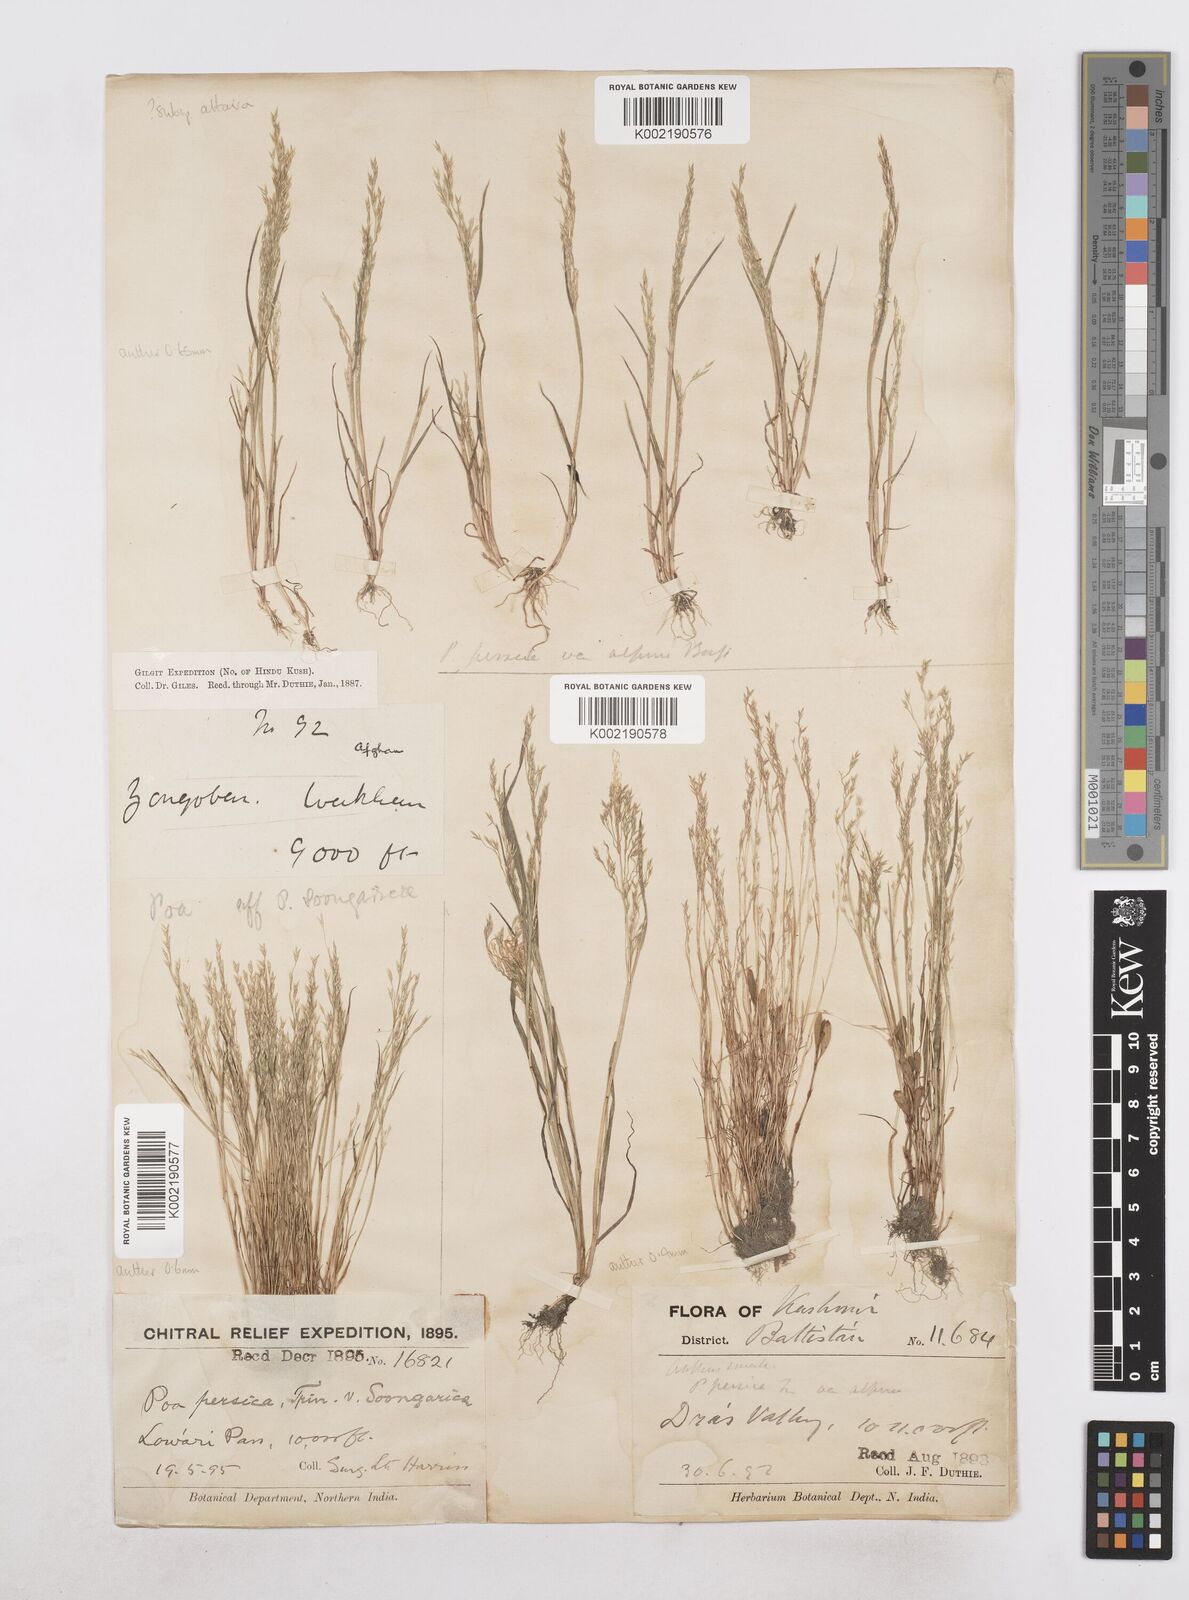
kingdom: Plantae
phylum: Tracheophyta
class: Liliopsida
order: Poales
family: Poaceae
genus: Poa
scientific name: Poa diaphora
